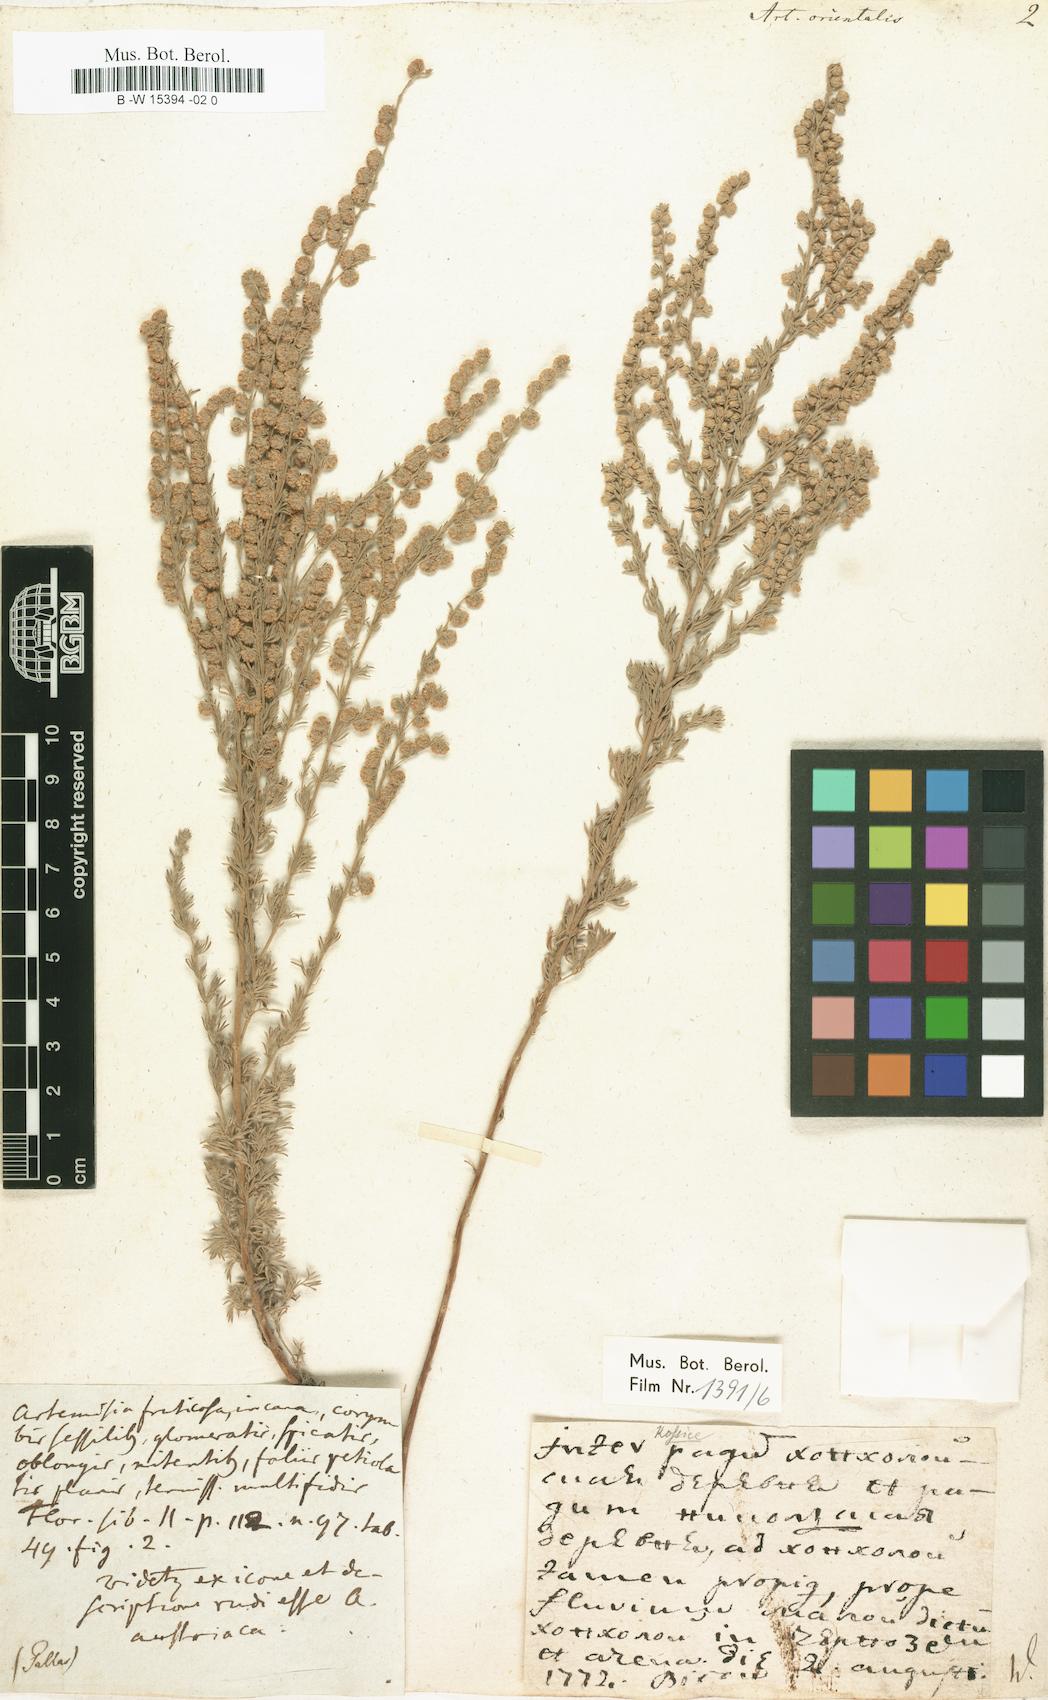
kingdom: Plantae
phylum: Tracheophyta
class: Magnoliopsida
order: Asterales
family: Asteraceae
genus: Artemisia
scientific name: Artemisia austriaca
